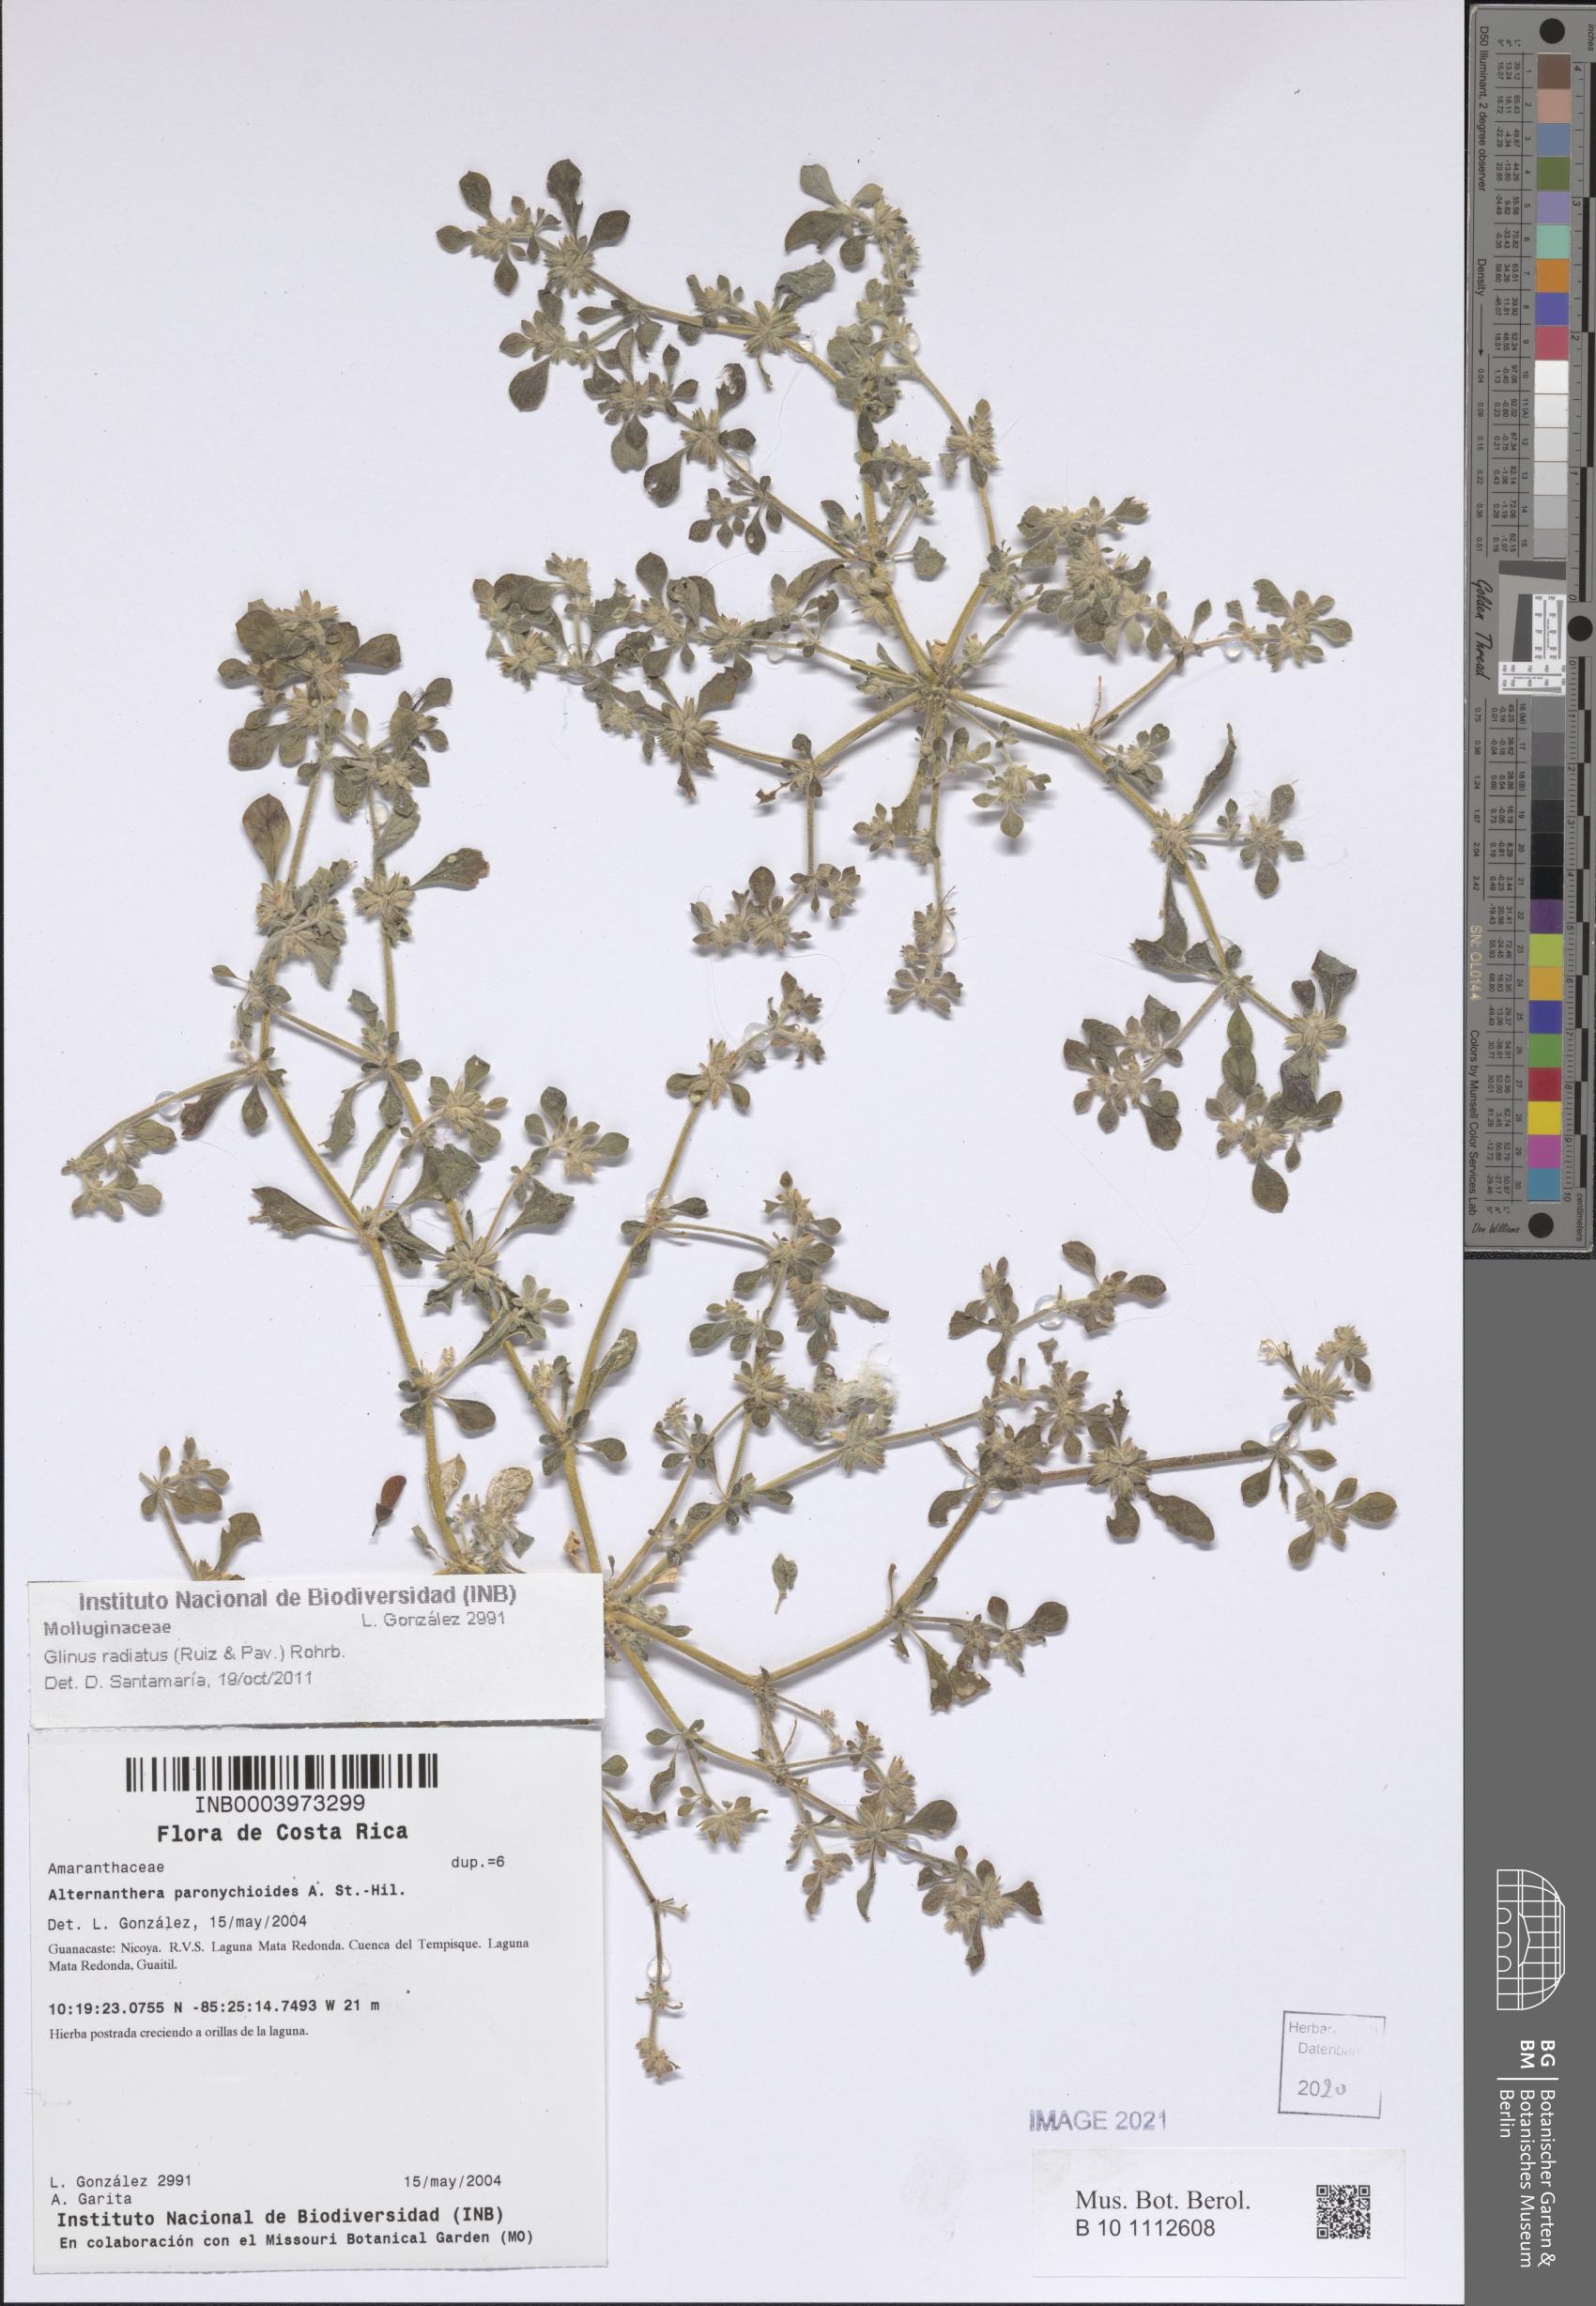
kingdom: Plantae
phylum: Tracheophyta
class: Magnoliopsida
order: Caryophyllales
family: Molluginaceae
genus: Glinus
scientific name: Glinus radiatus
